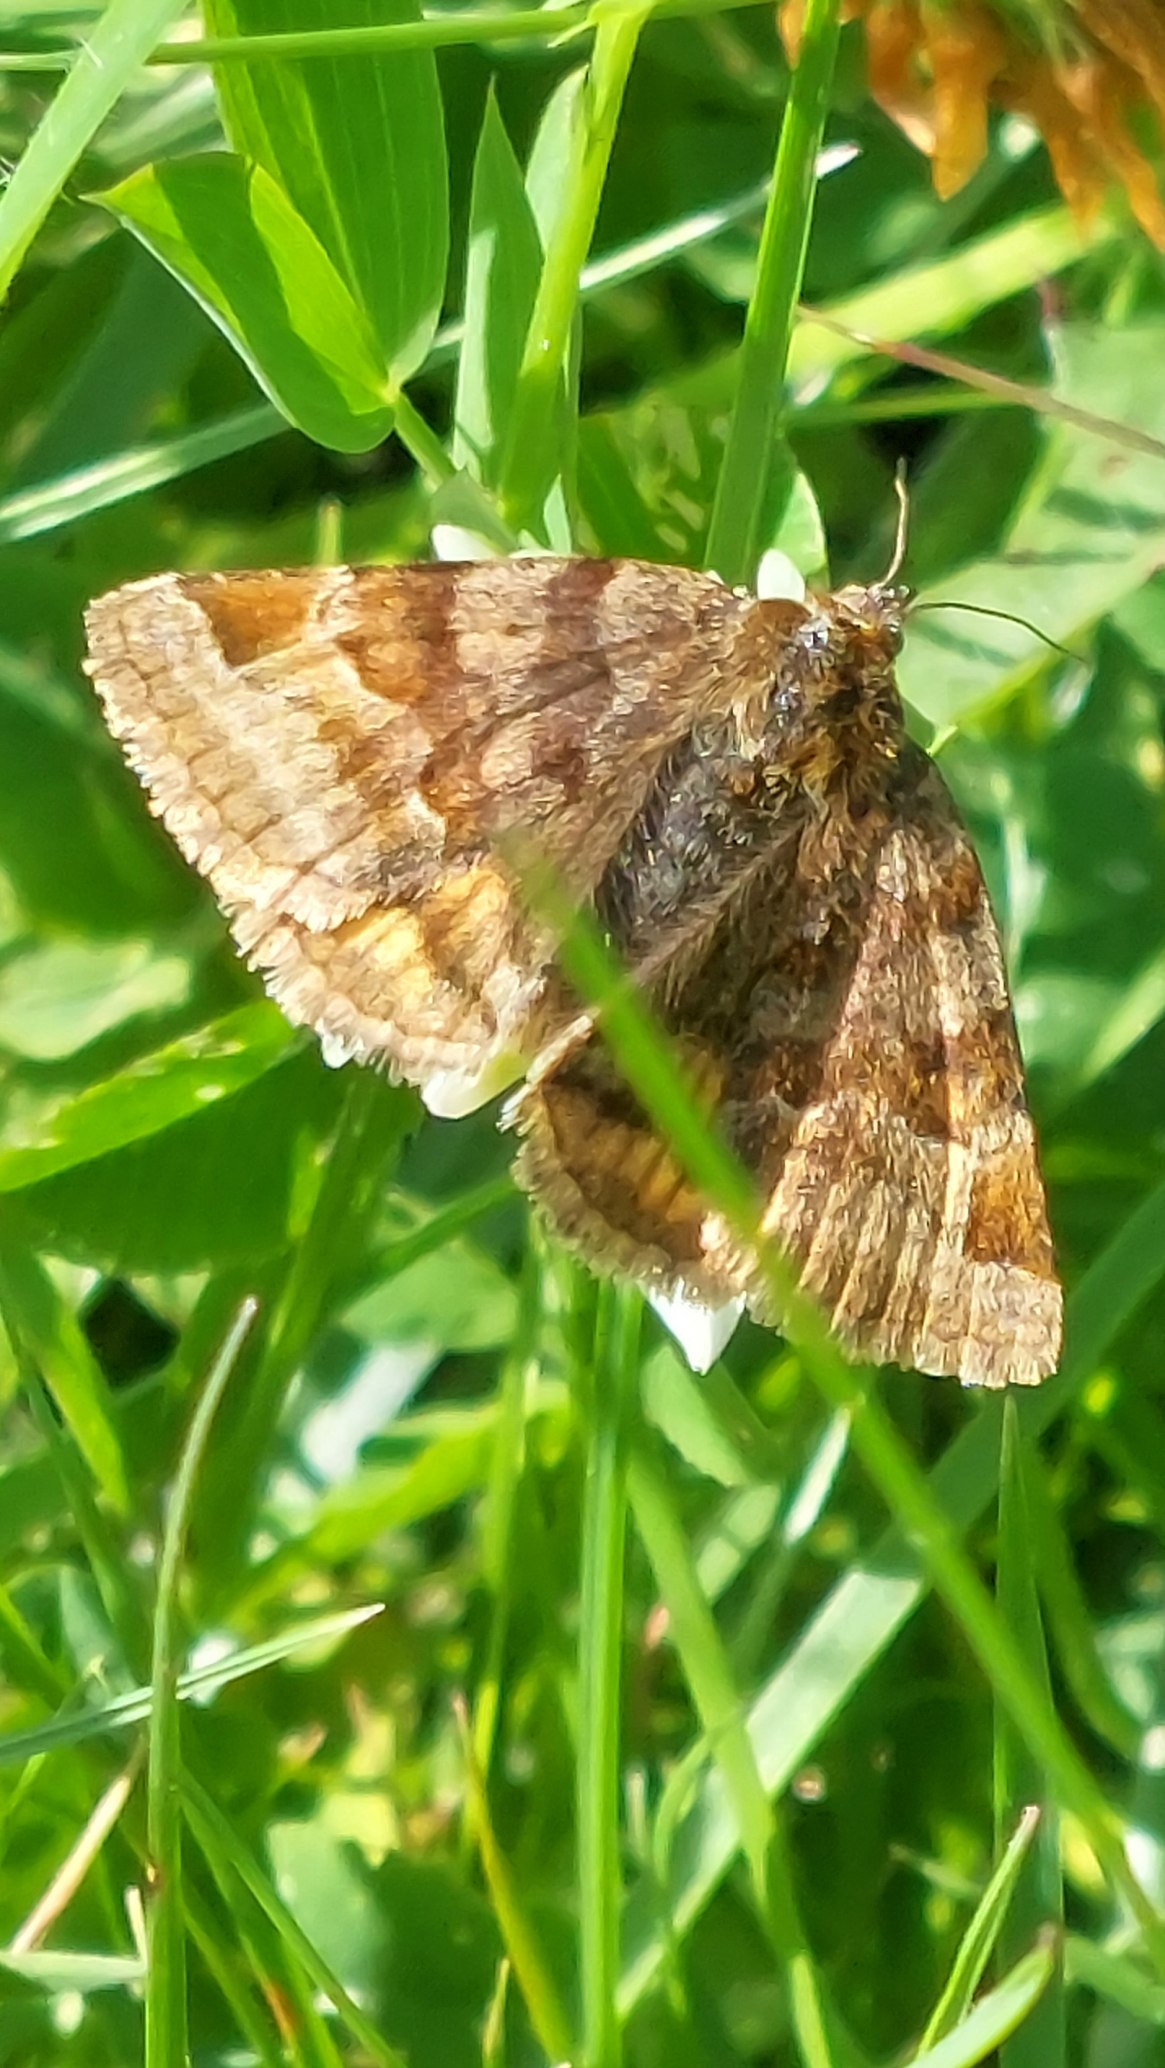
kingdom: Animalia
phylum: Arthropoda
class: Insecta
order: Lepidoptera
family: Erebidae
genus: Euclidia
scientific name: Euclidia glyphica
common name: Brun kløverugle
